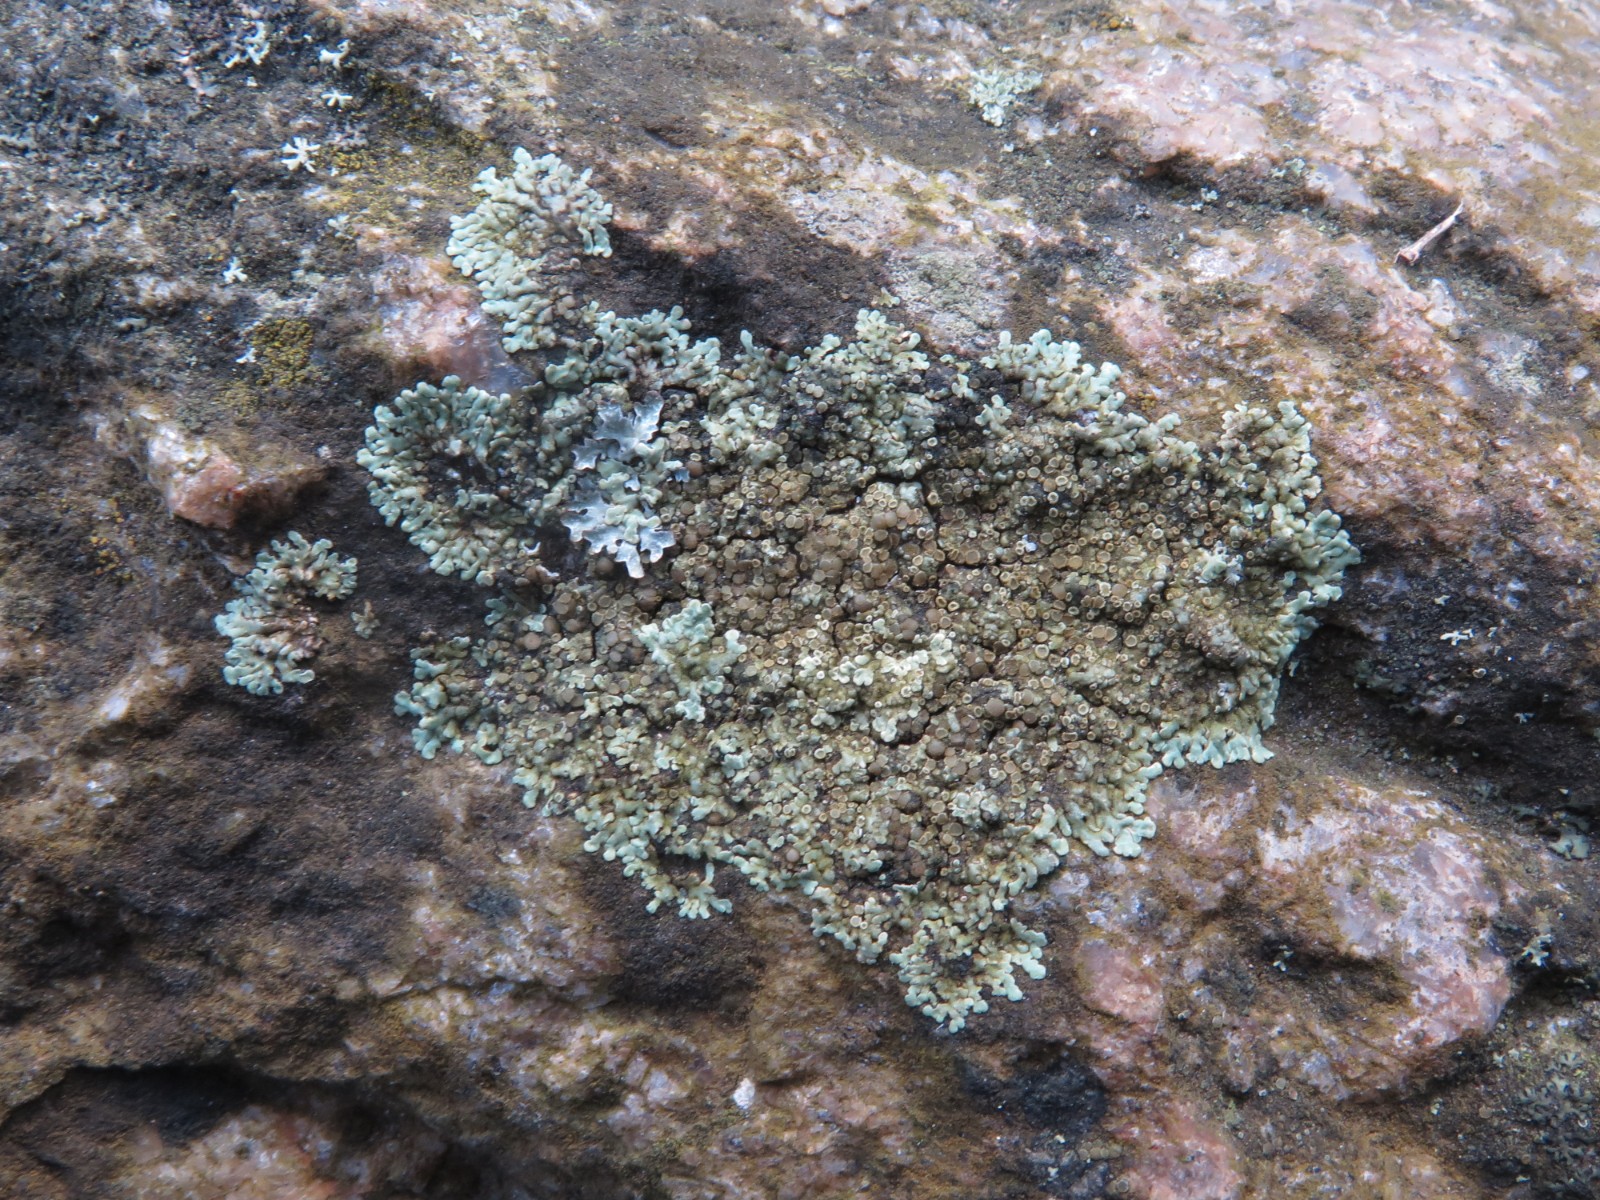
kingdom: Fungi
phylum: Ascomycota
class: Lecanoromycetes
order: Lecanorales
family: Lecanoraceae
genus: Protoparmeliopsis
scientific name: Protoparmeliopsis muralis
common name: randfliget kantskivelav
